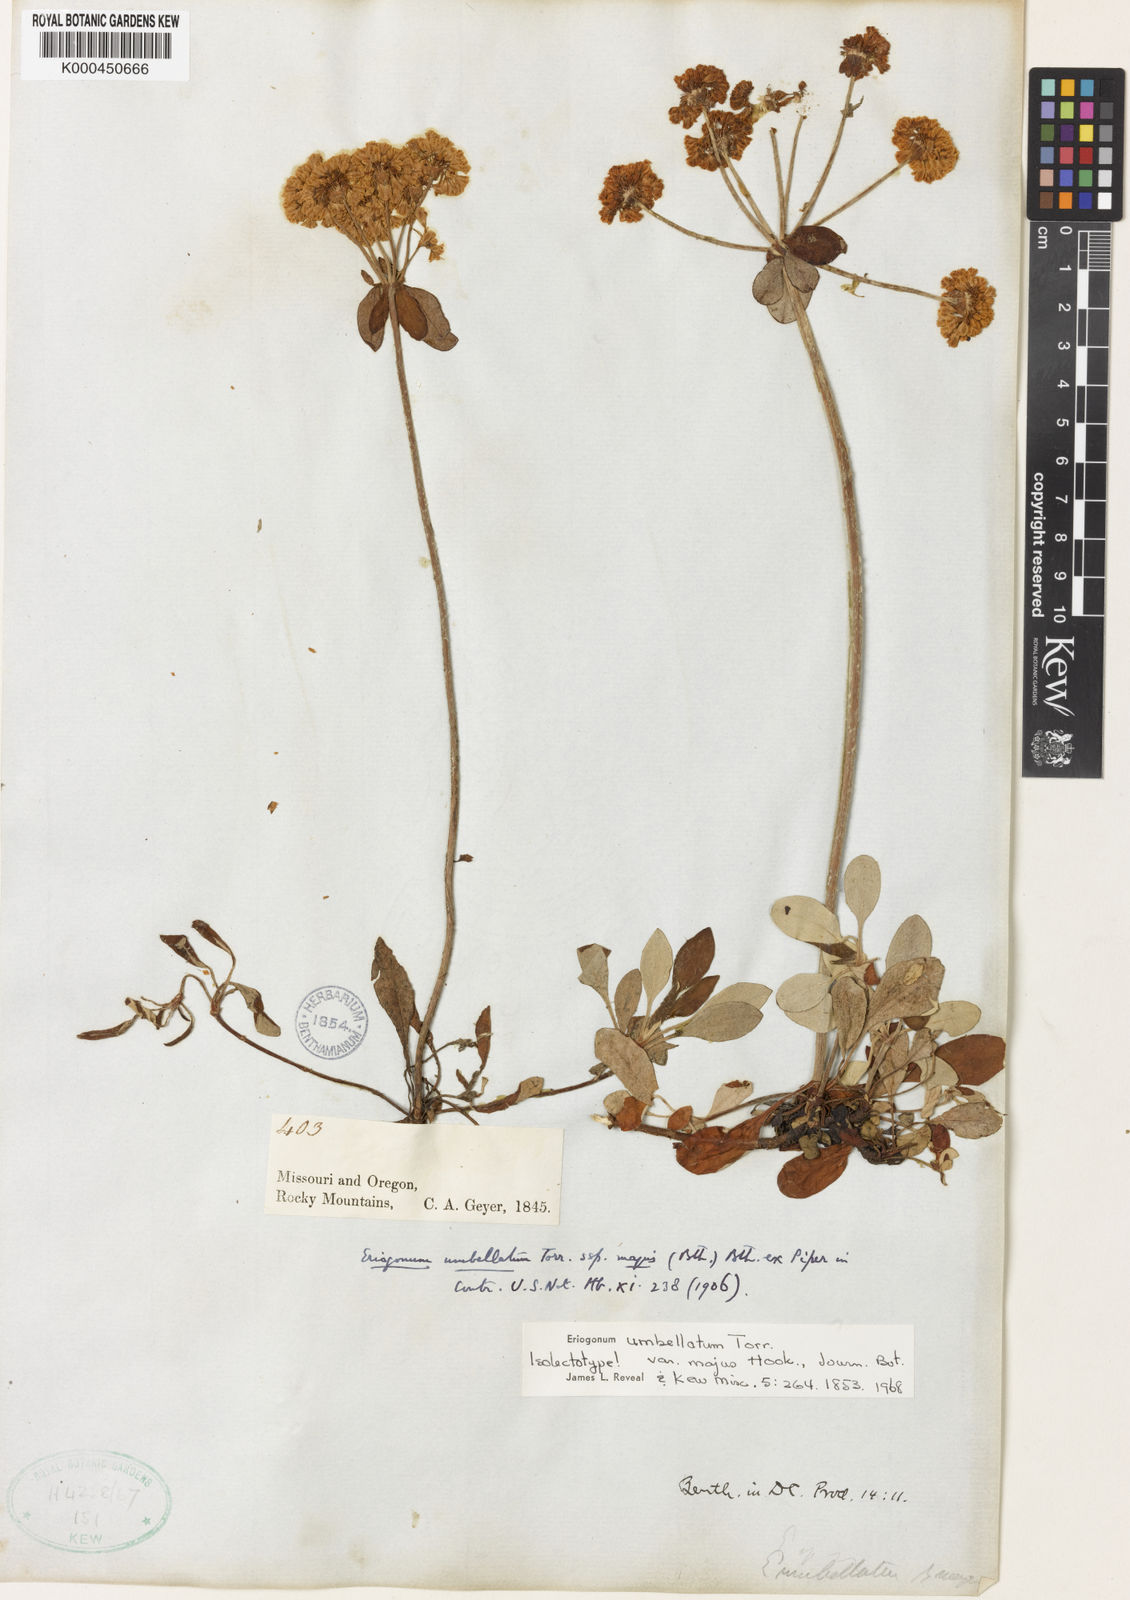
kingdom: Plantae
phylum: Tracheophyta
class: Magnoliopsida
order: Caryophyllales
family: Polygonaceae
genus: Eriogonum
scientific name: Eriogonum umbellatum
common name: Sulfur-buckwheat
